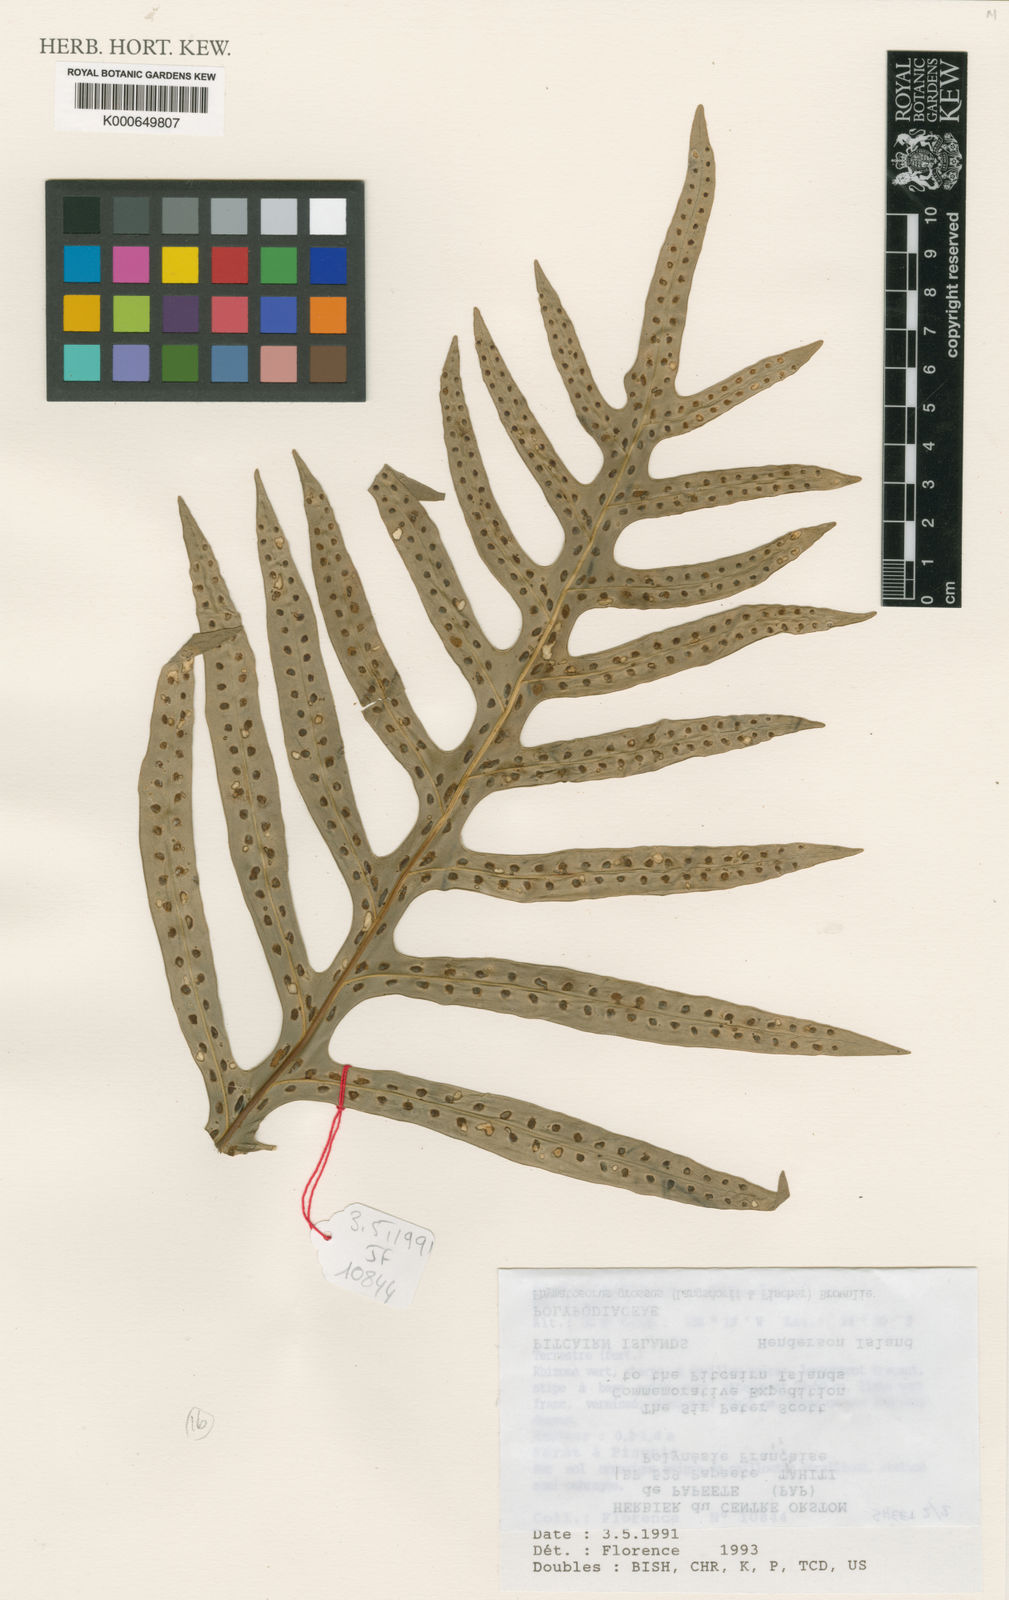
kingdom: Plantae
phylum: Tracheophyta
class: Polypodiopsida
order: Polypodiales
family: Polypodiaceae
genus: Microsorum
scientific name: Microsorum grossum
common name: Musk fern
